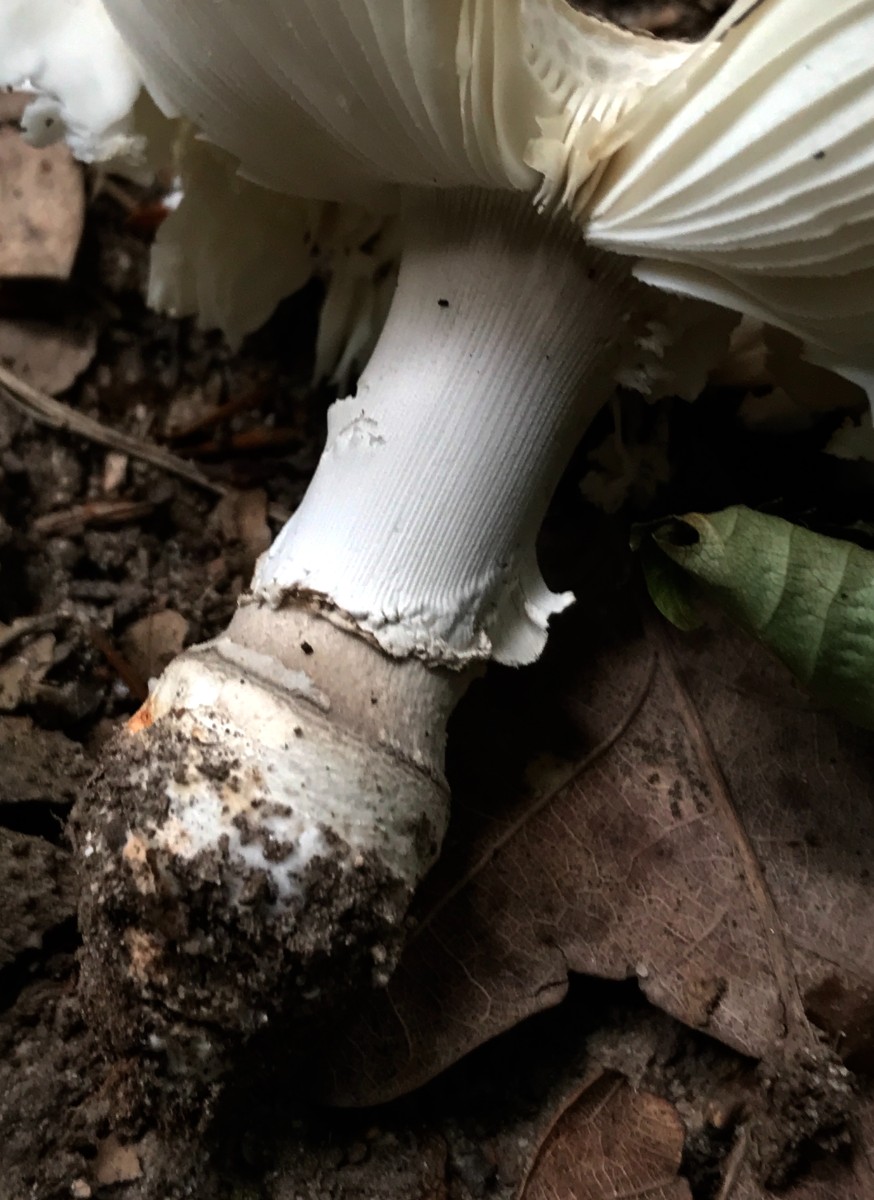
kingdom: Fungi
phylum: Basidiomycota
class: Agaricomycetes
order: Agaricales
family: Amanitaceae
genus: Amanita
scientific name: Amanita
